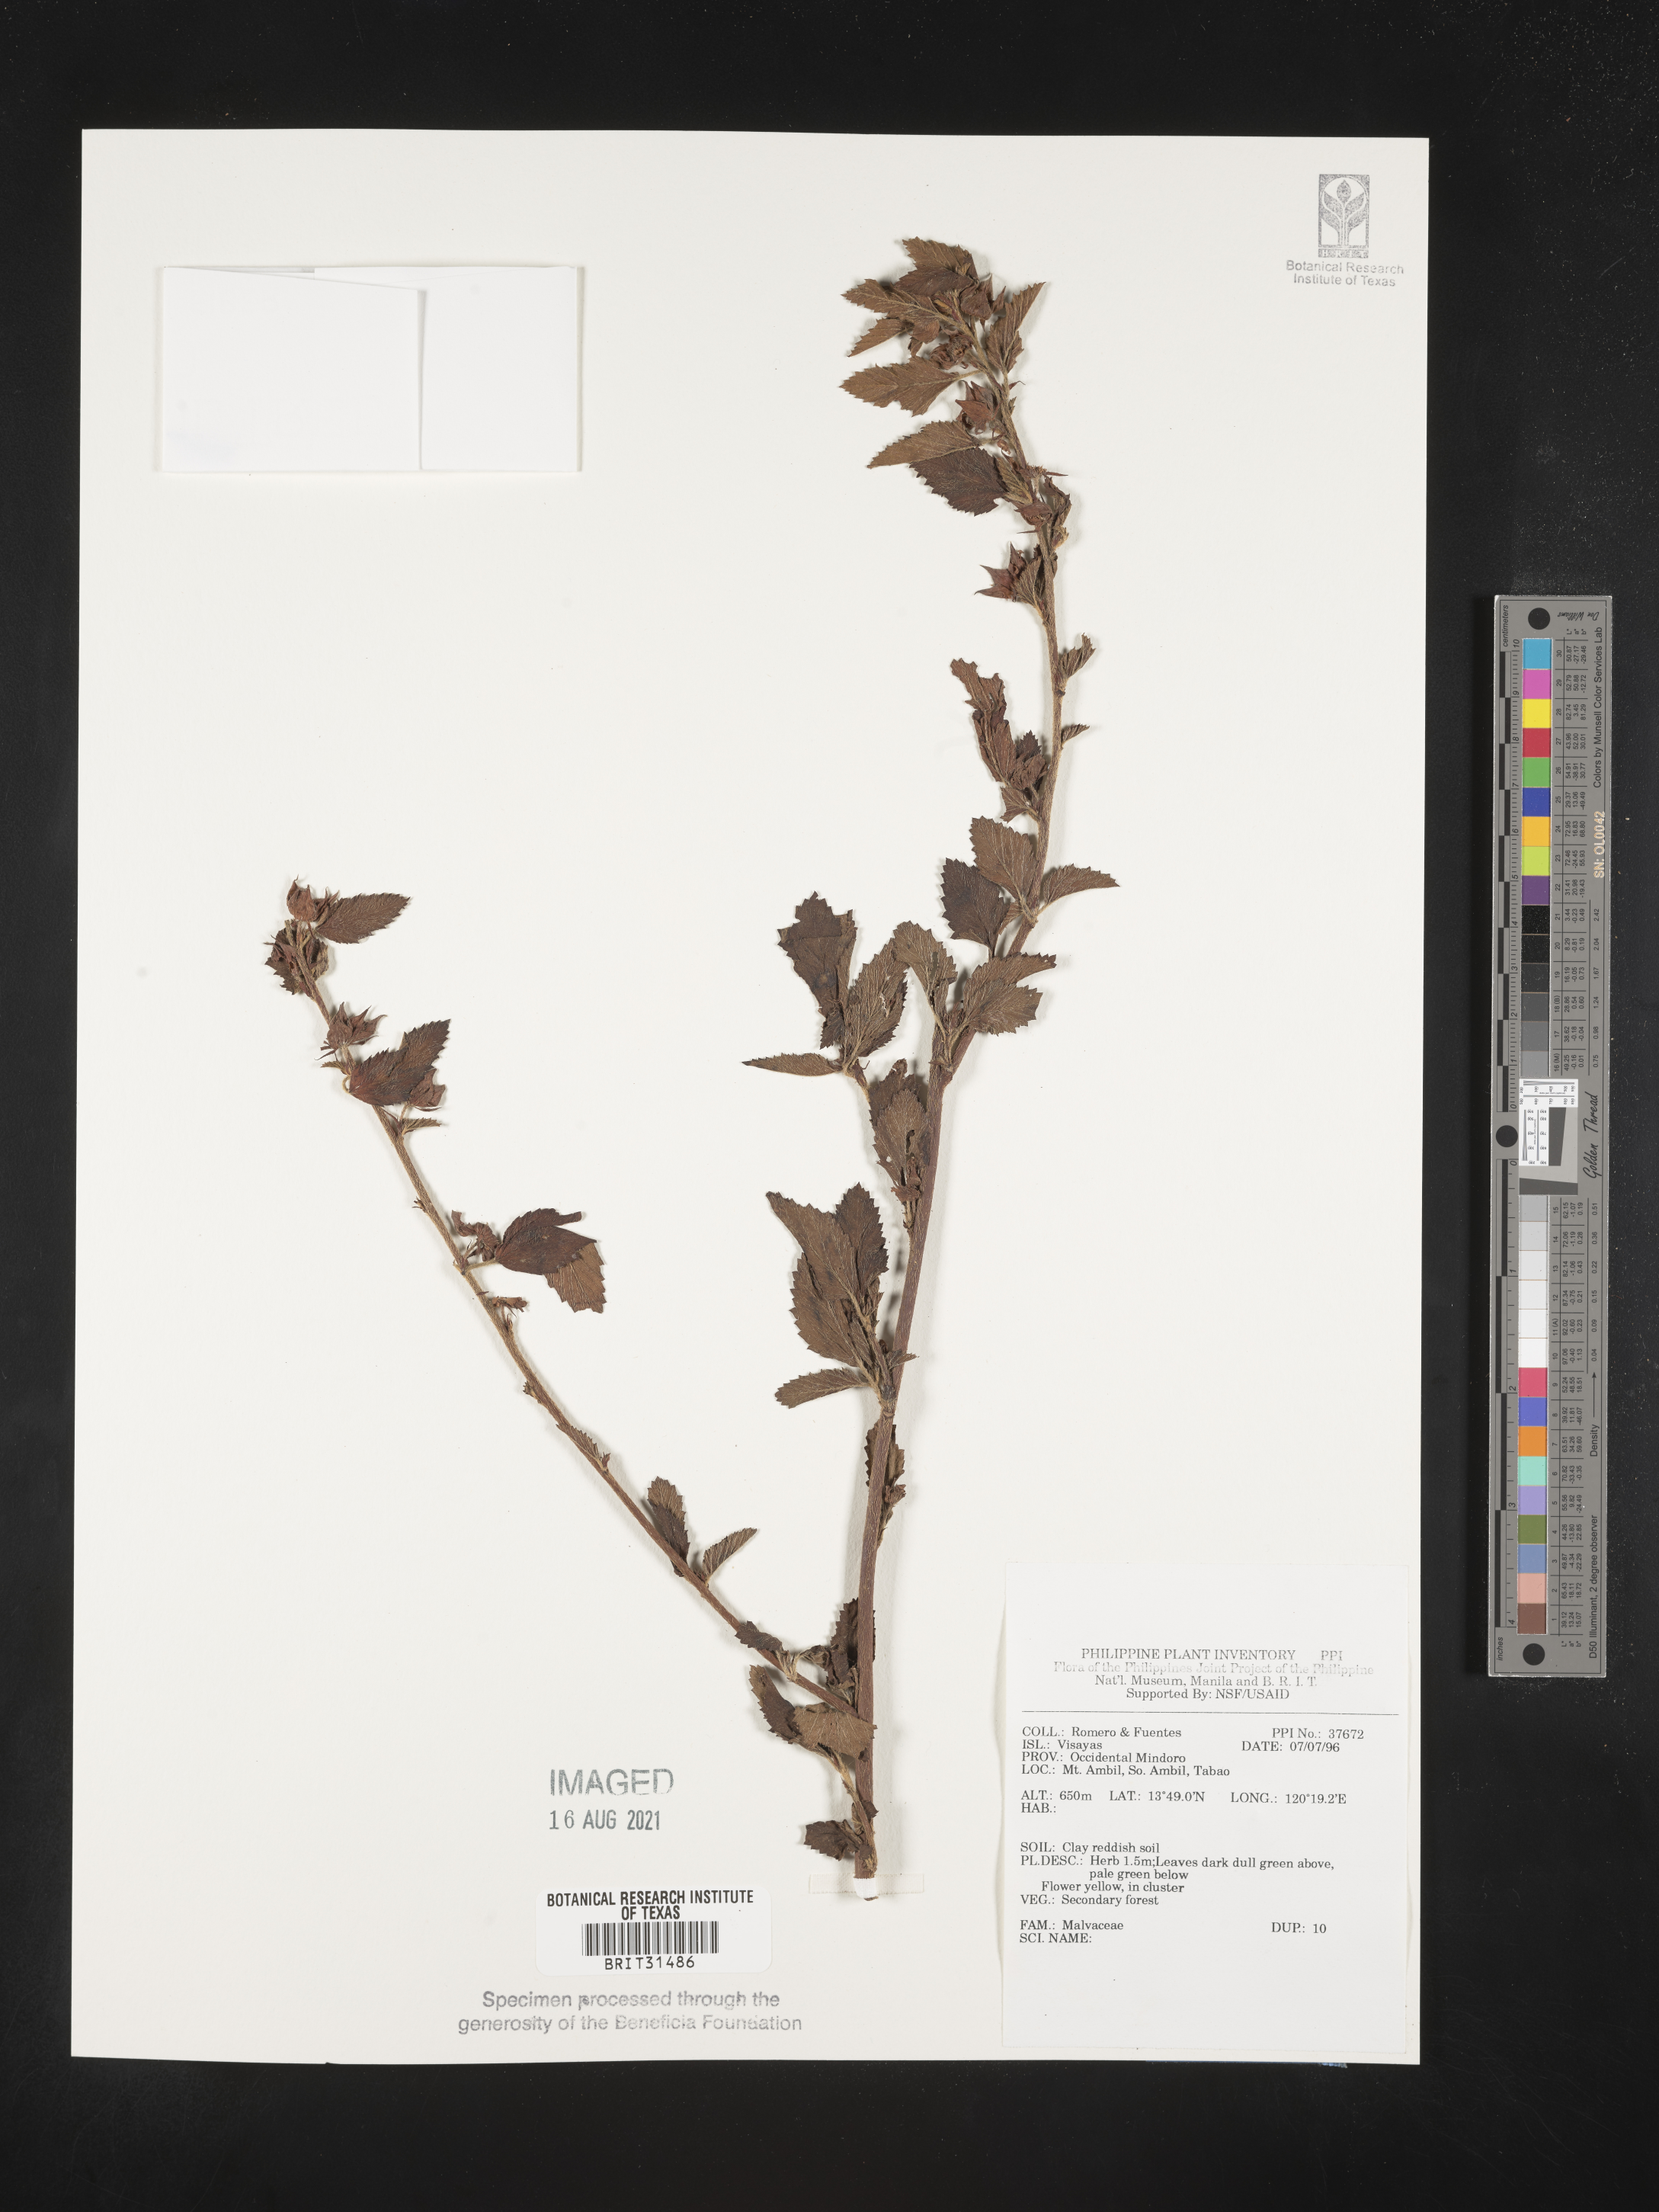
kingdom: Plantae
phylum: Tracheophyta
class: Magnoliopsida
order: Malvales
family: Malvaceae
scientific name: Malvaceae
